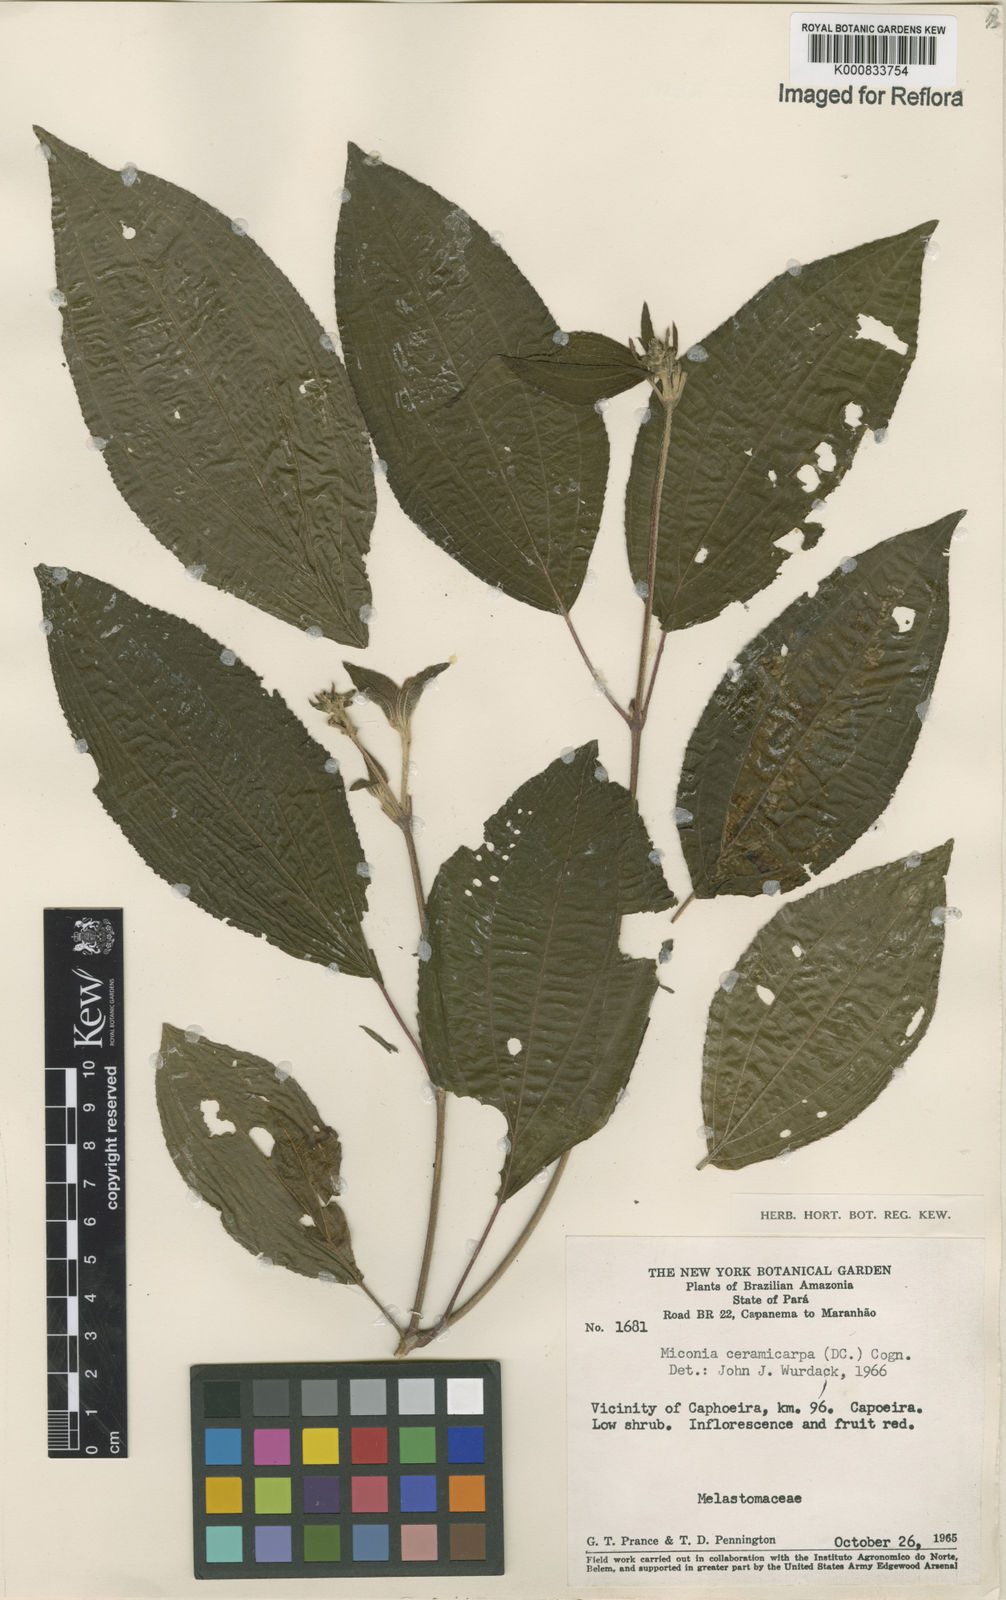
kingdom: Plantae
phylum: Tracheophyta
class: Magnoliopsida
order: Myrtales
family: Melastomataceae
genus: Miconia
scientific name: Miconia ceramicarpa
